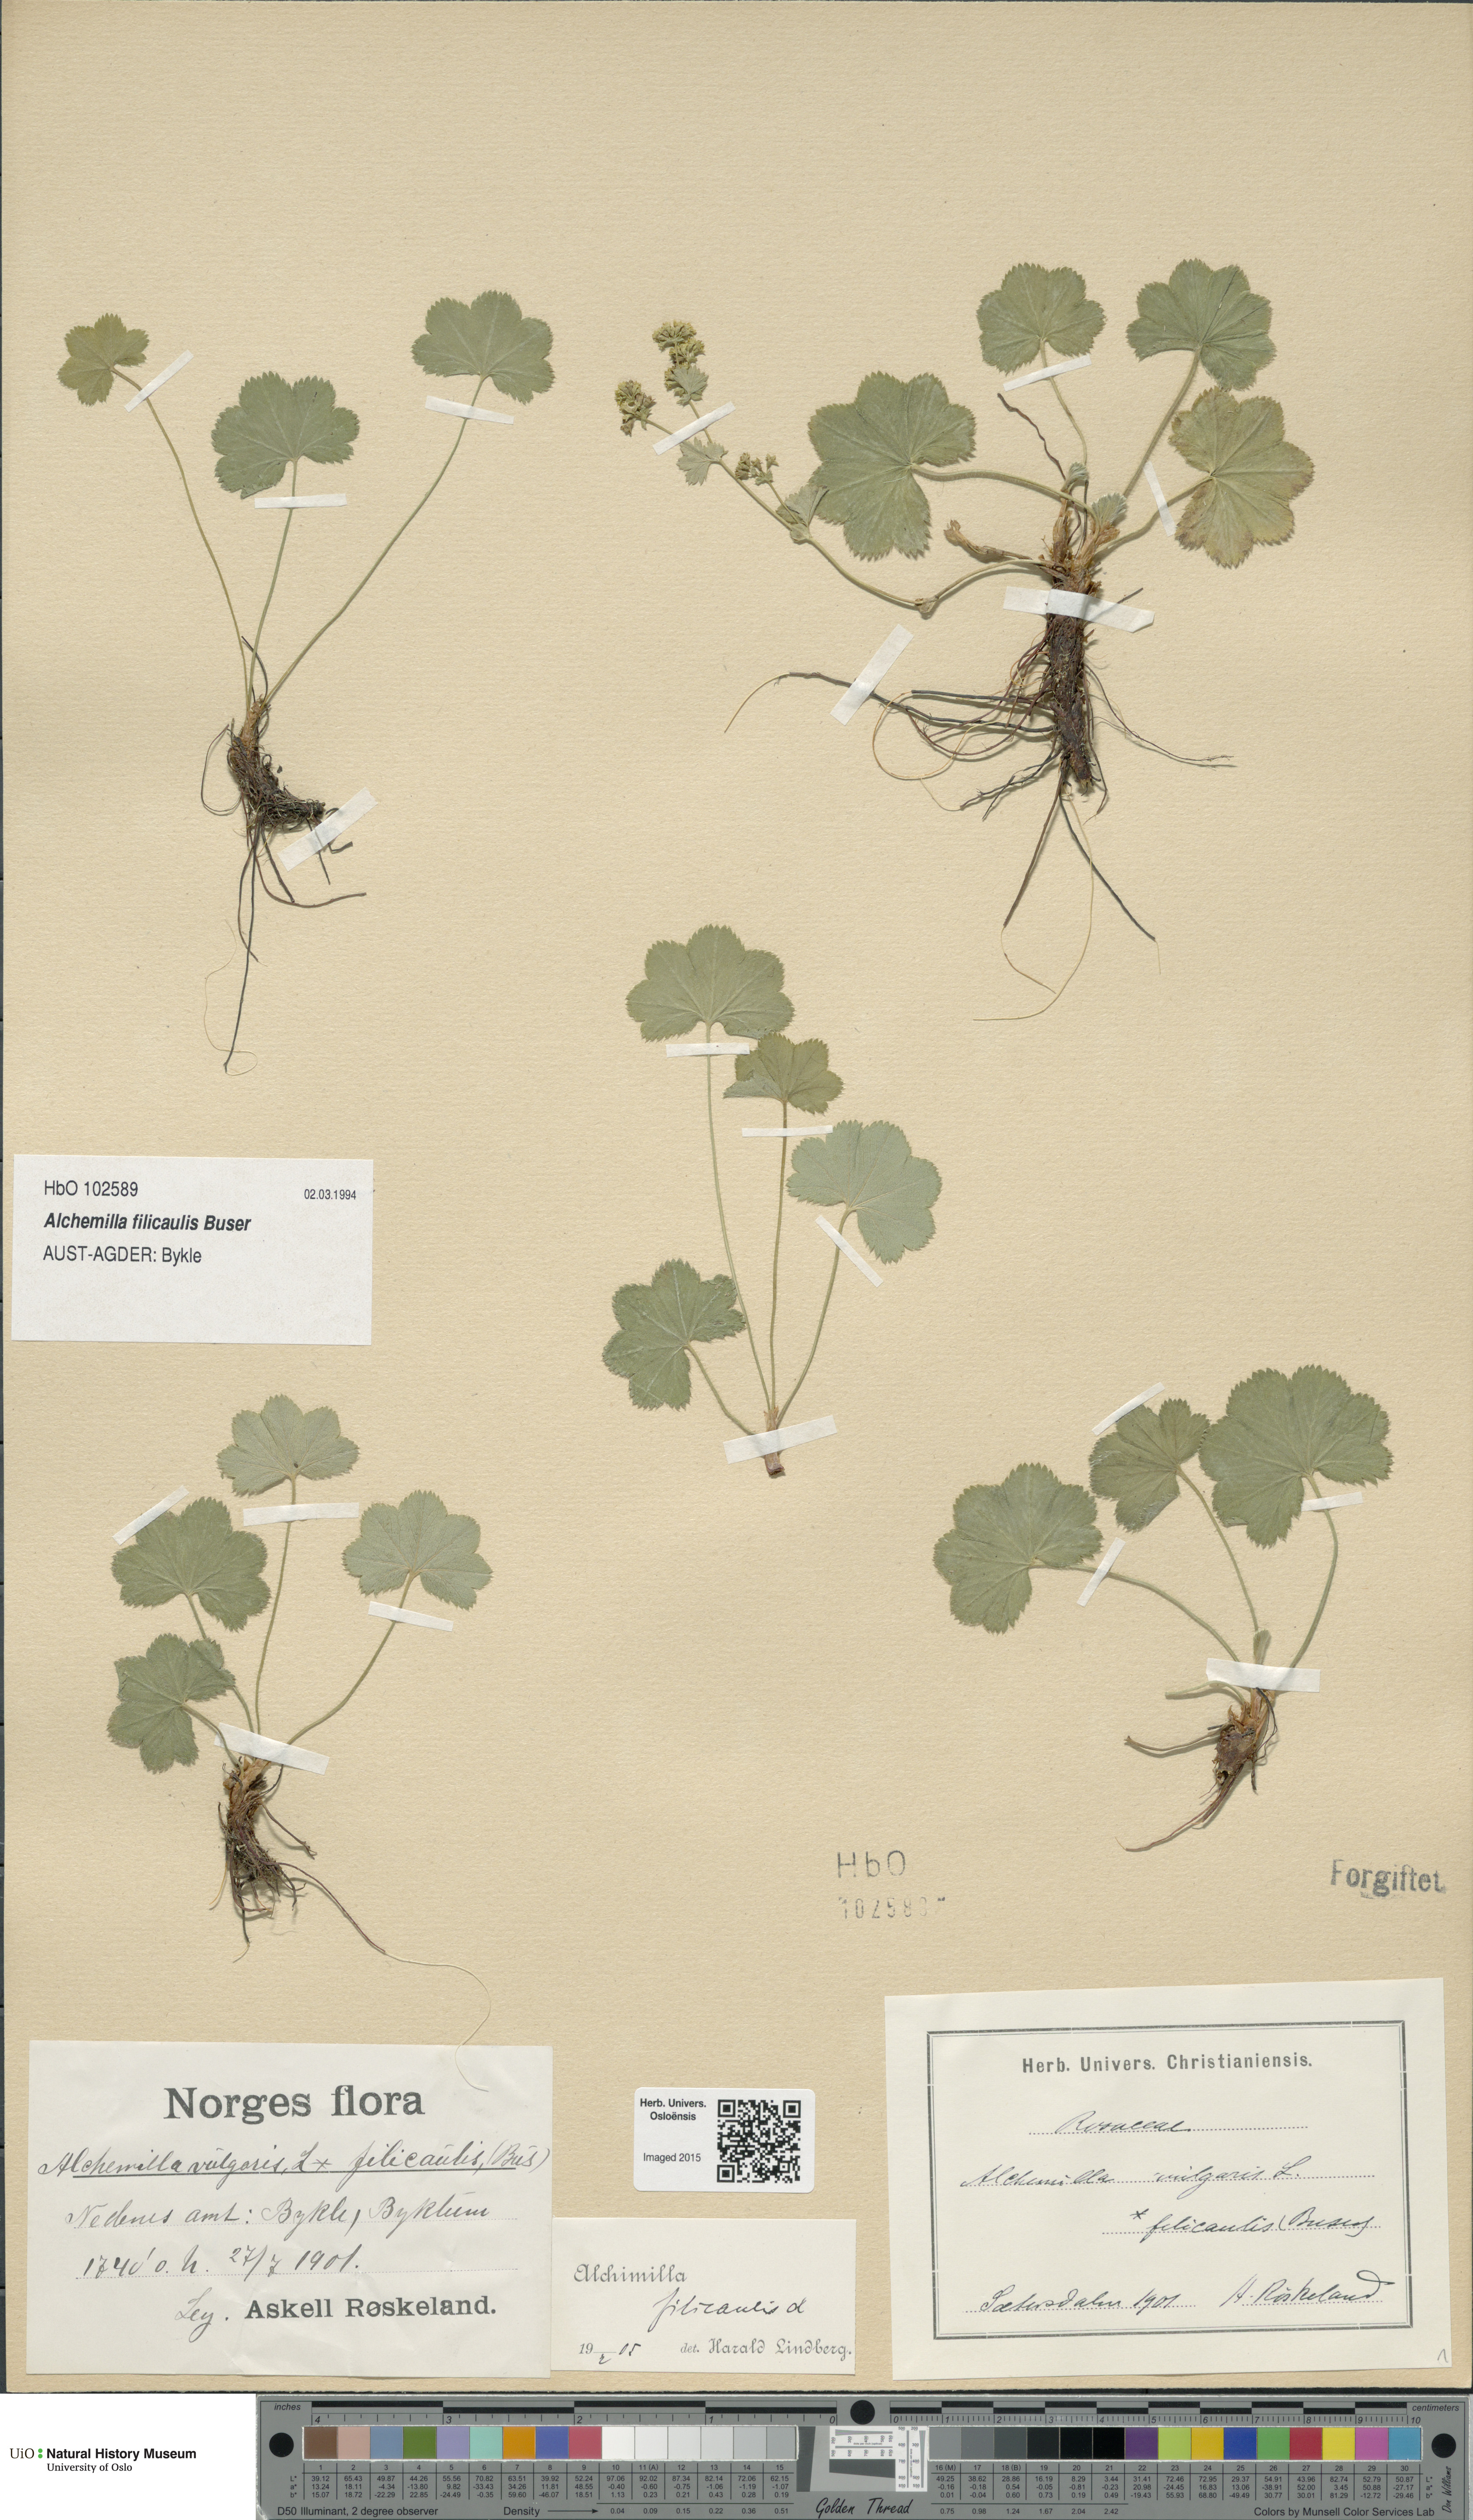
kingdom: Plantae
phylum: Tracheophyta
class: Magnoliopsida
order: Rosales
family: Rosaceae
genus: Alchemilla
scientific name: Alchemilla filicaulis
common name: Hairy lady's-mantle
